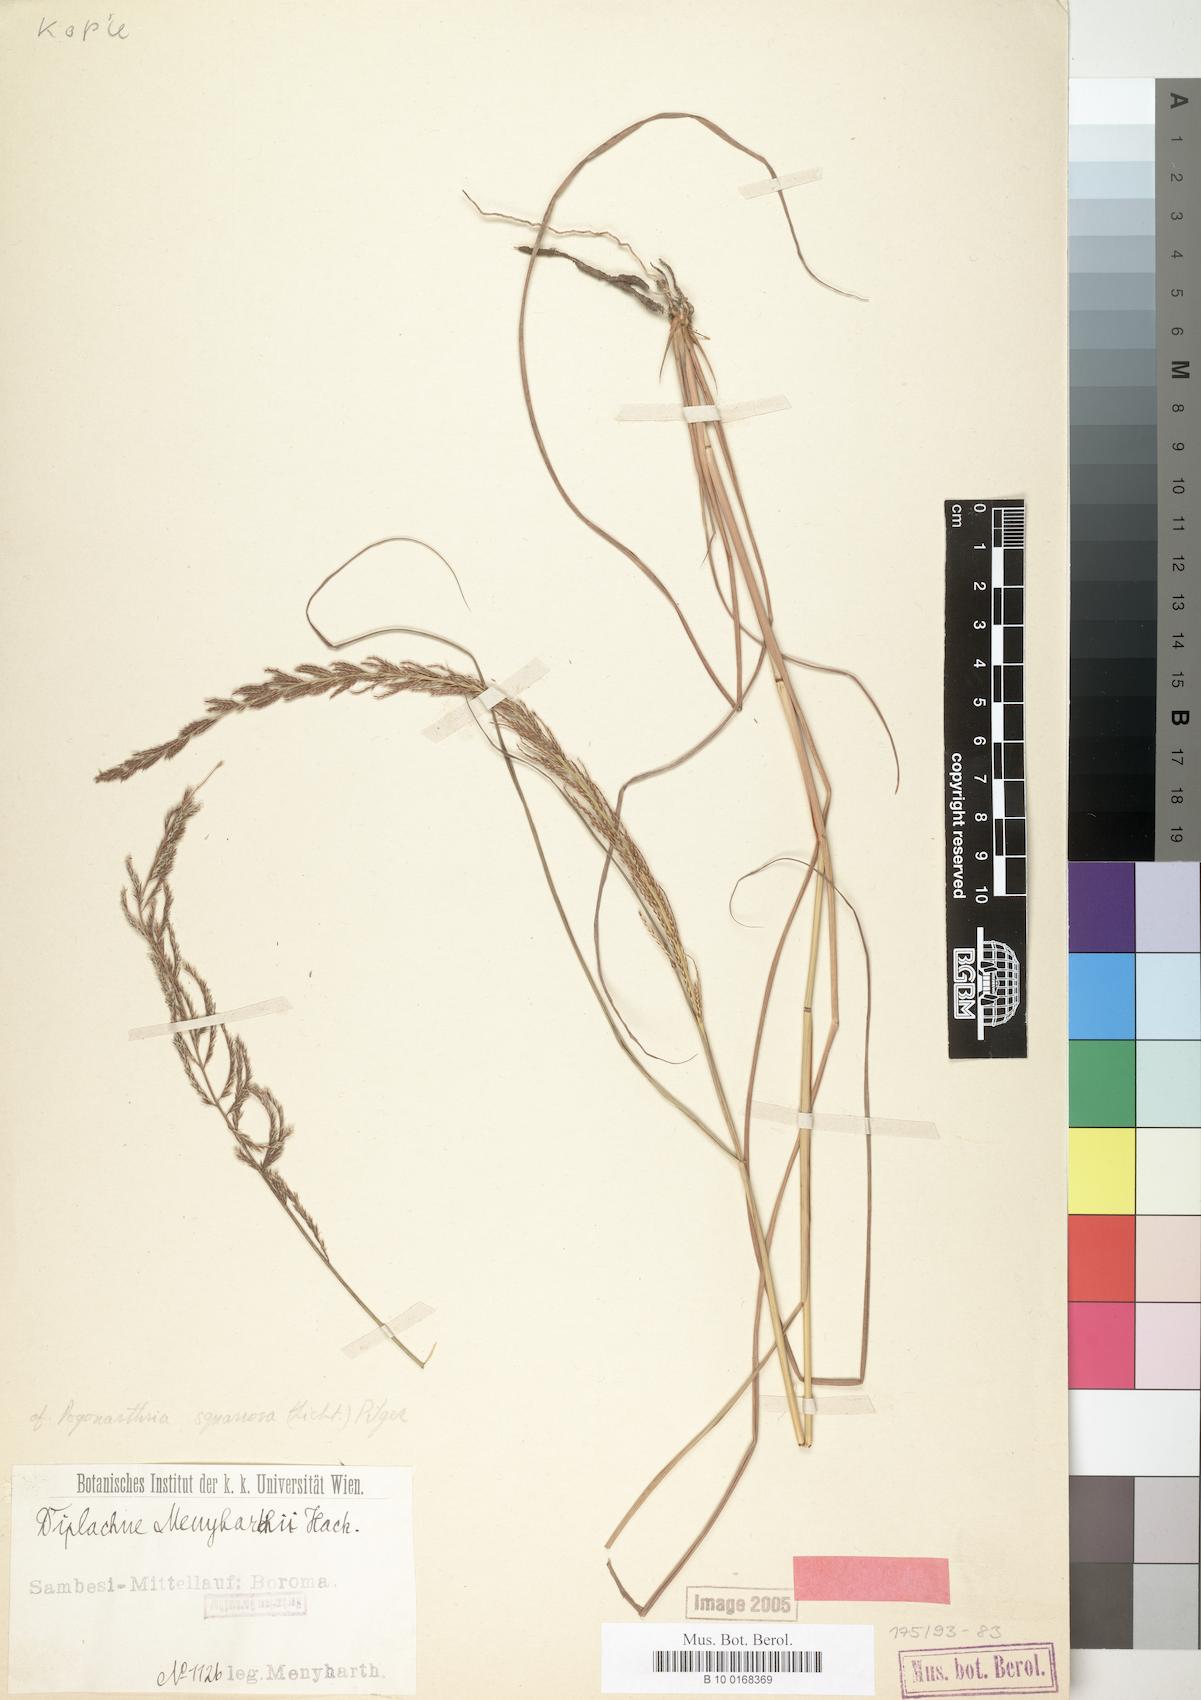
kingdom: Plantae
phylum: Tracheophyta
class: Liliopsida
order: Poales
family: Poaceae
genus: Pogonarthria
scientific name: Pogonarthria squarrosa
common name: Grass
